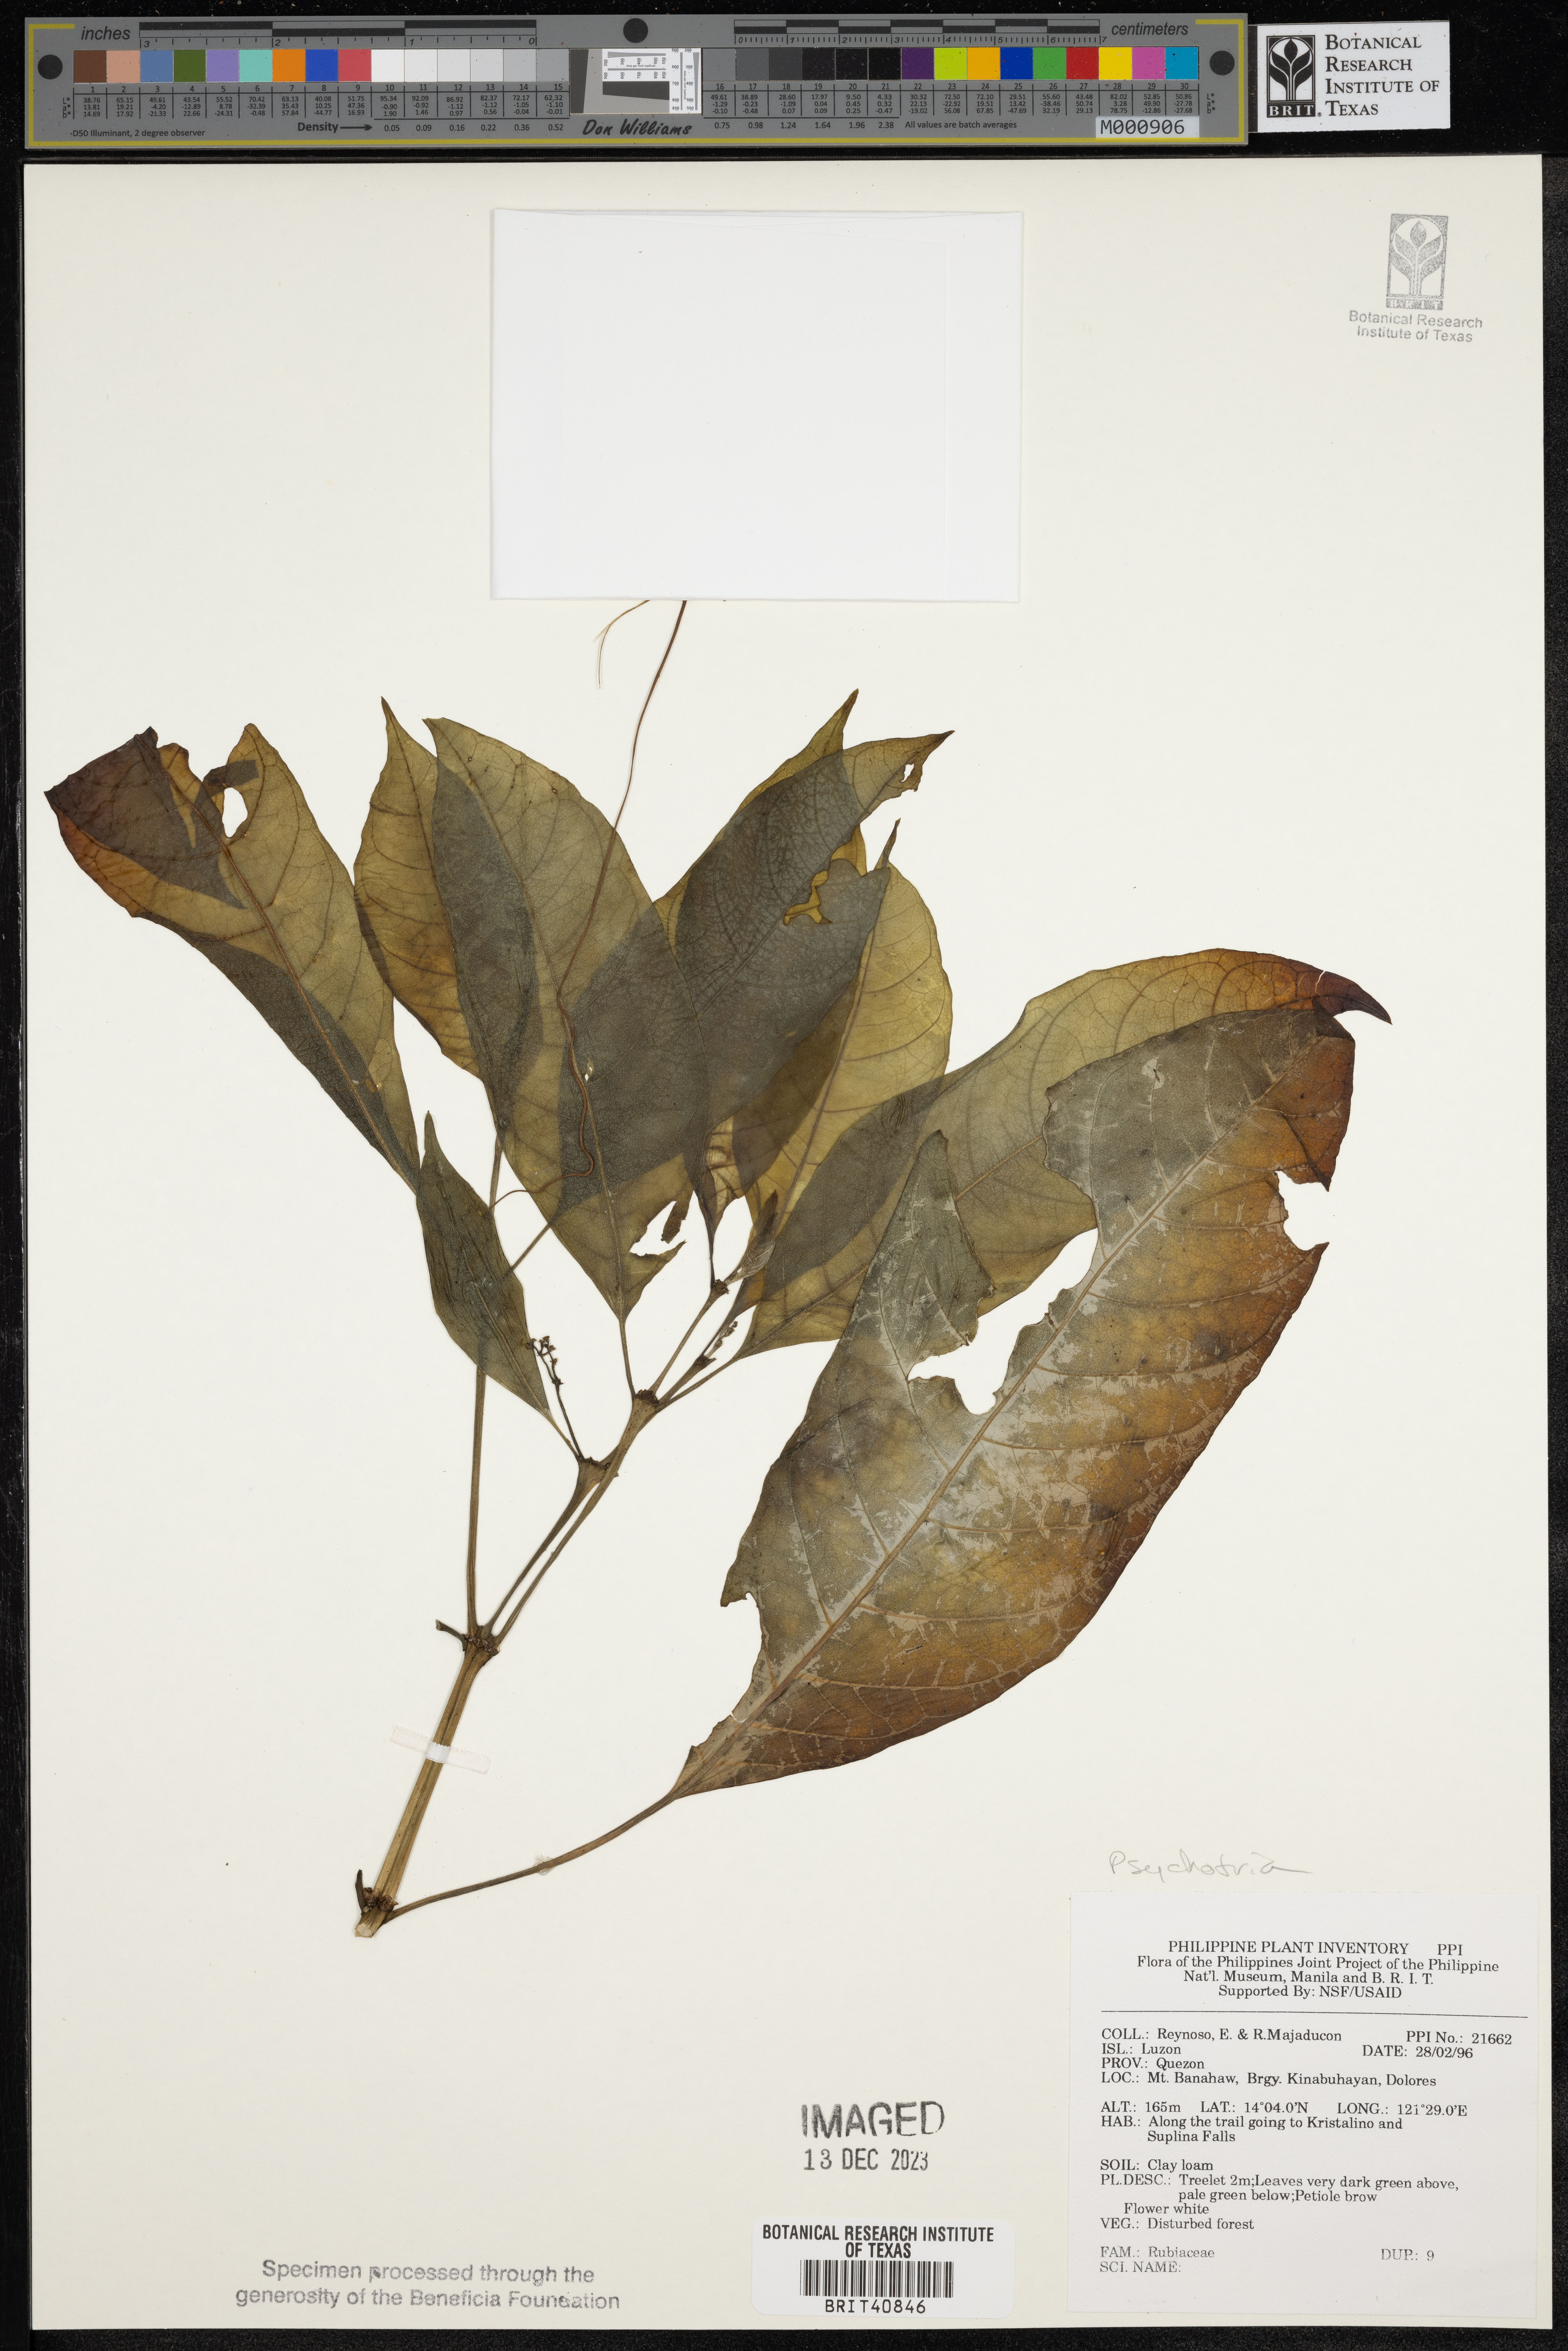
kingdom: Plantae
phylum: Tracheophyta
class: Magnoliopsida
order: Gentianales
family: Rubiaceae
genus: Psychotria
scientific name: Psychotria
